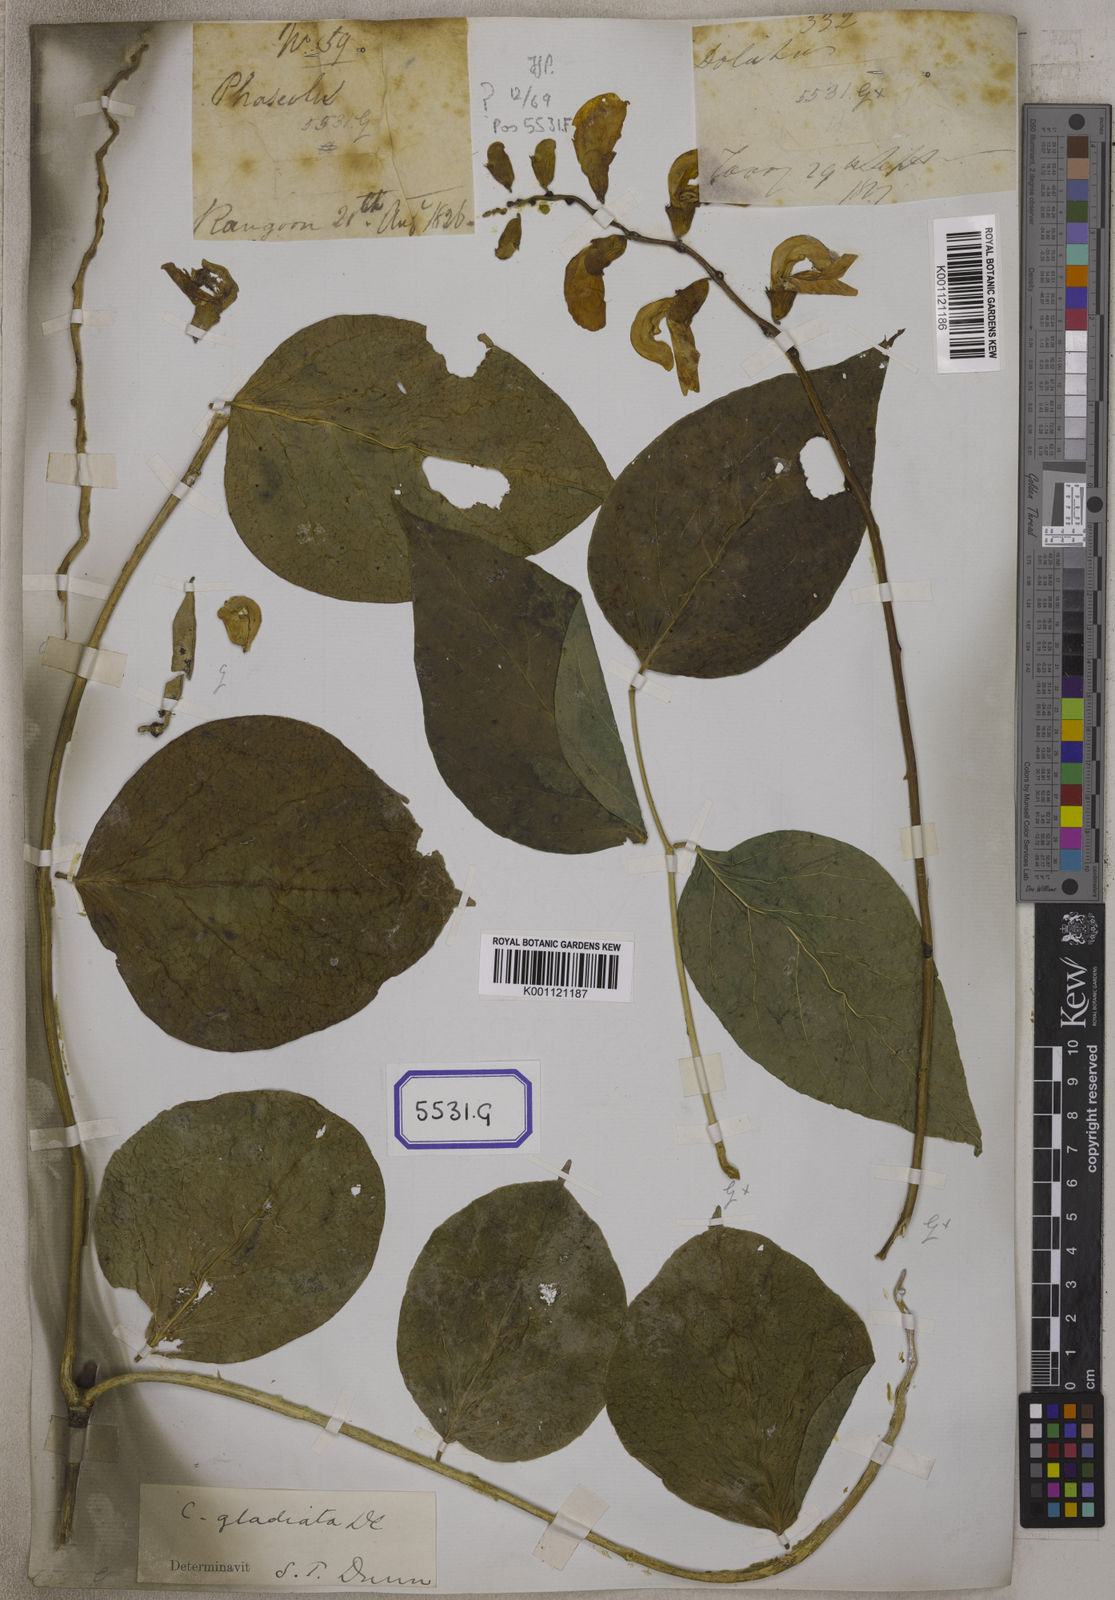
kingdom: Plantae
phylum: Tracheophyta
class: Magnoliopsida
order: Fabales
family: Fabaceae
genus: Canavalia
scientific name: Canavalia gladiata
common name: Scimitar-bean
